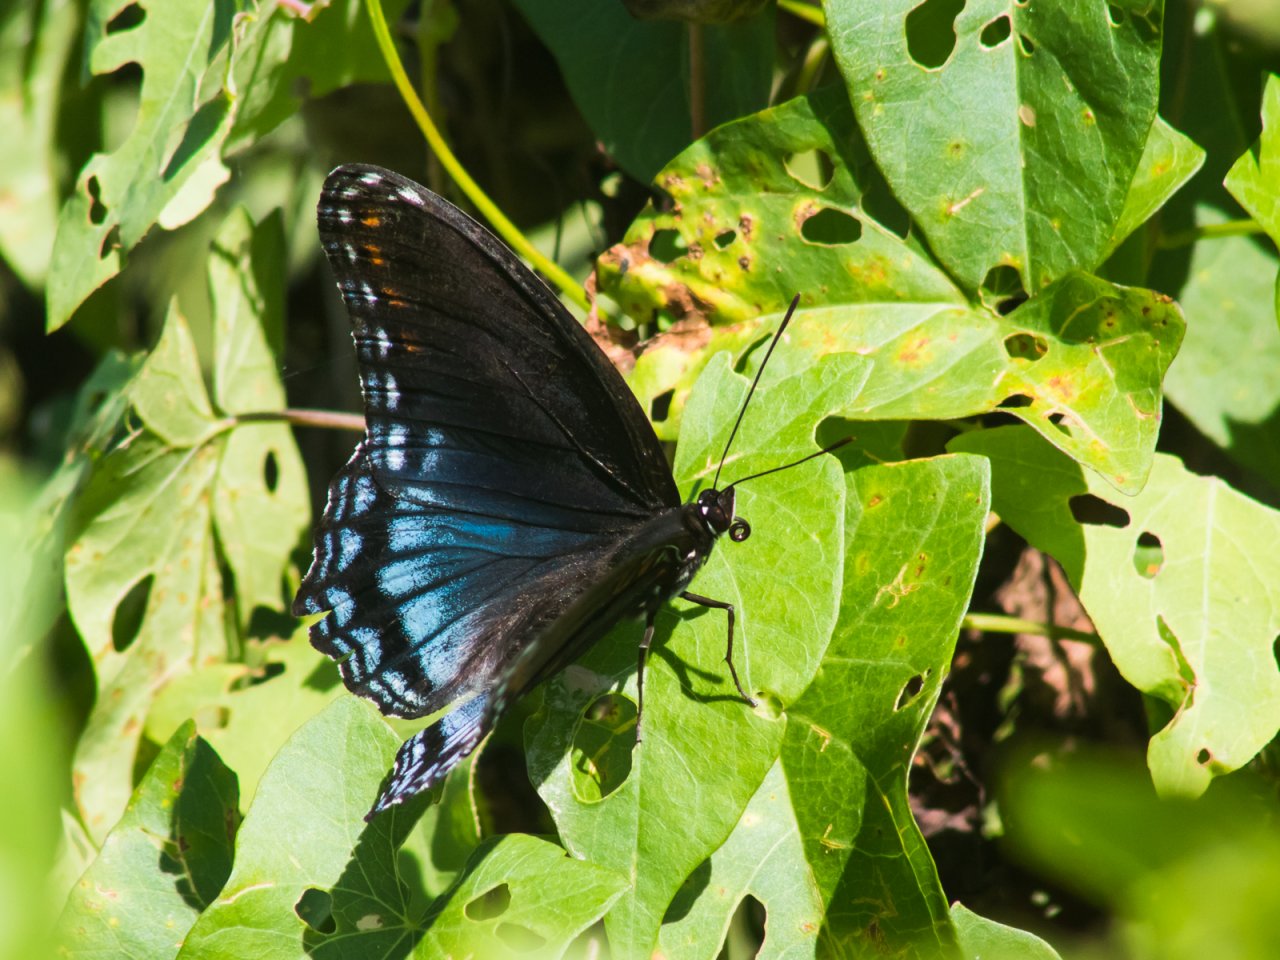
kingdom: Animalia
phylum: Arthropoda
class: Insecta
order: Lepidoptera
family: Nymphalidae
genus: Limenitis
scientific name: Limenitis astyanax
